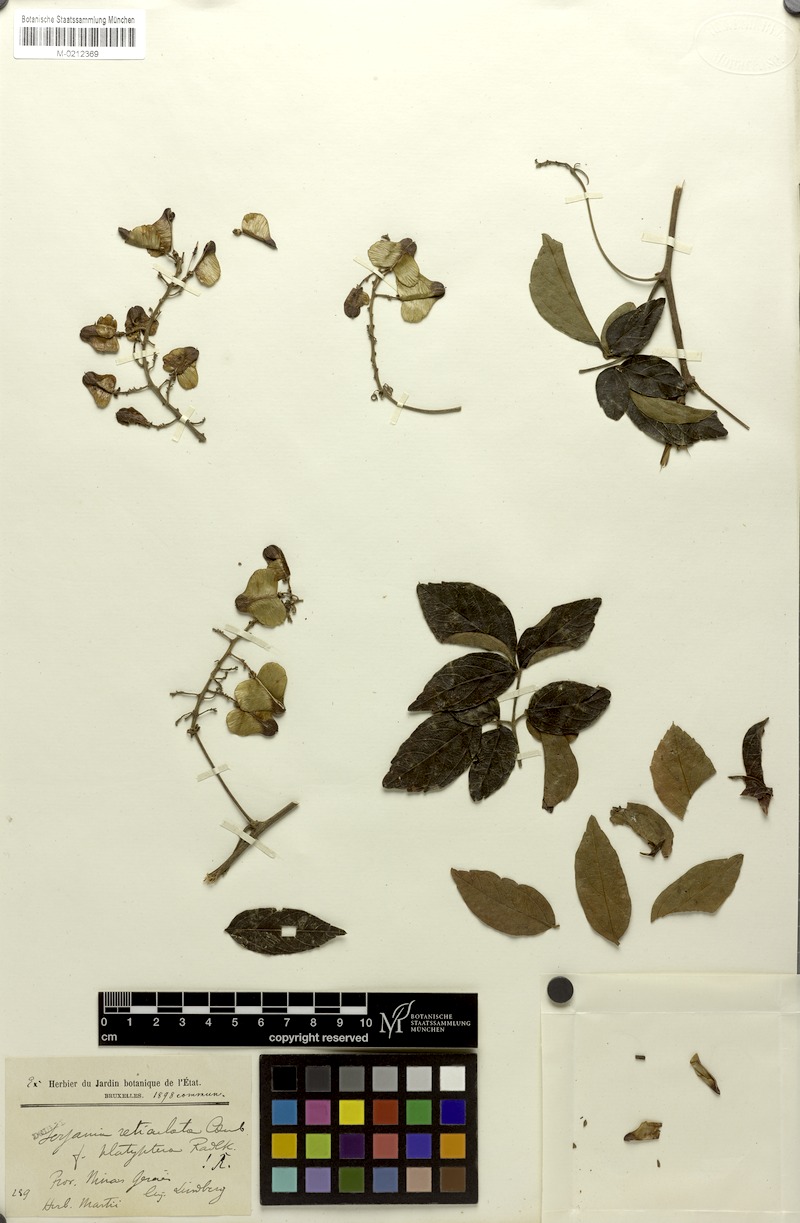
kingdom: Plantae
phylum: Tracheophyta
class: Magnoliopsida
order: Sapindales
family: Sapindaceae
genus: Serjania
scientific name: Serjania caracasana
